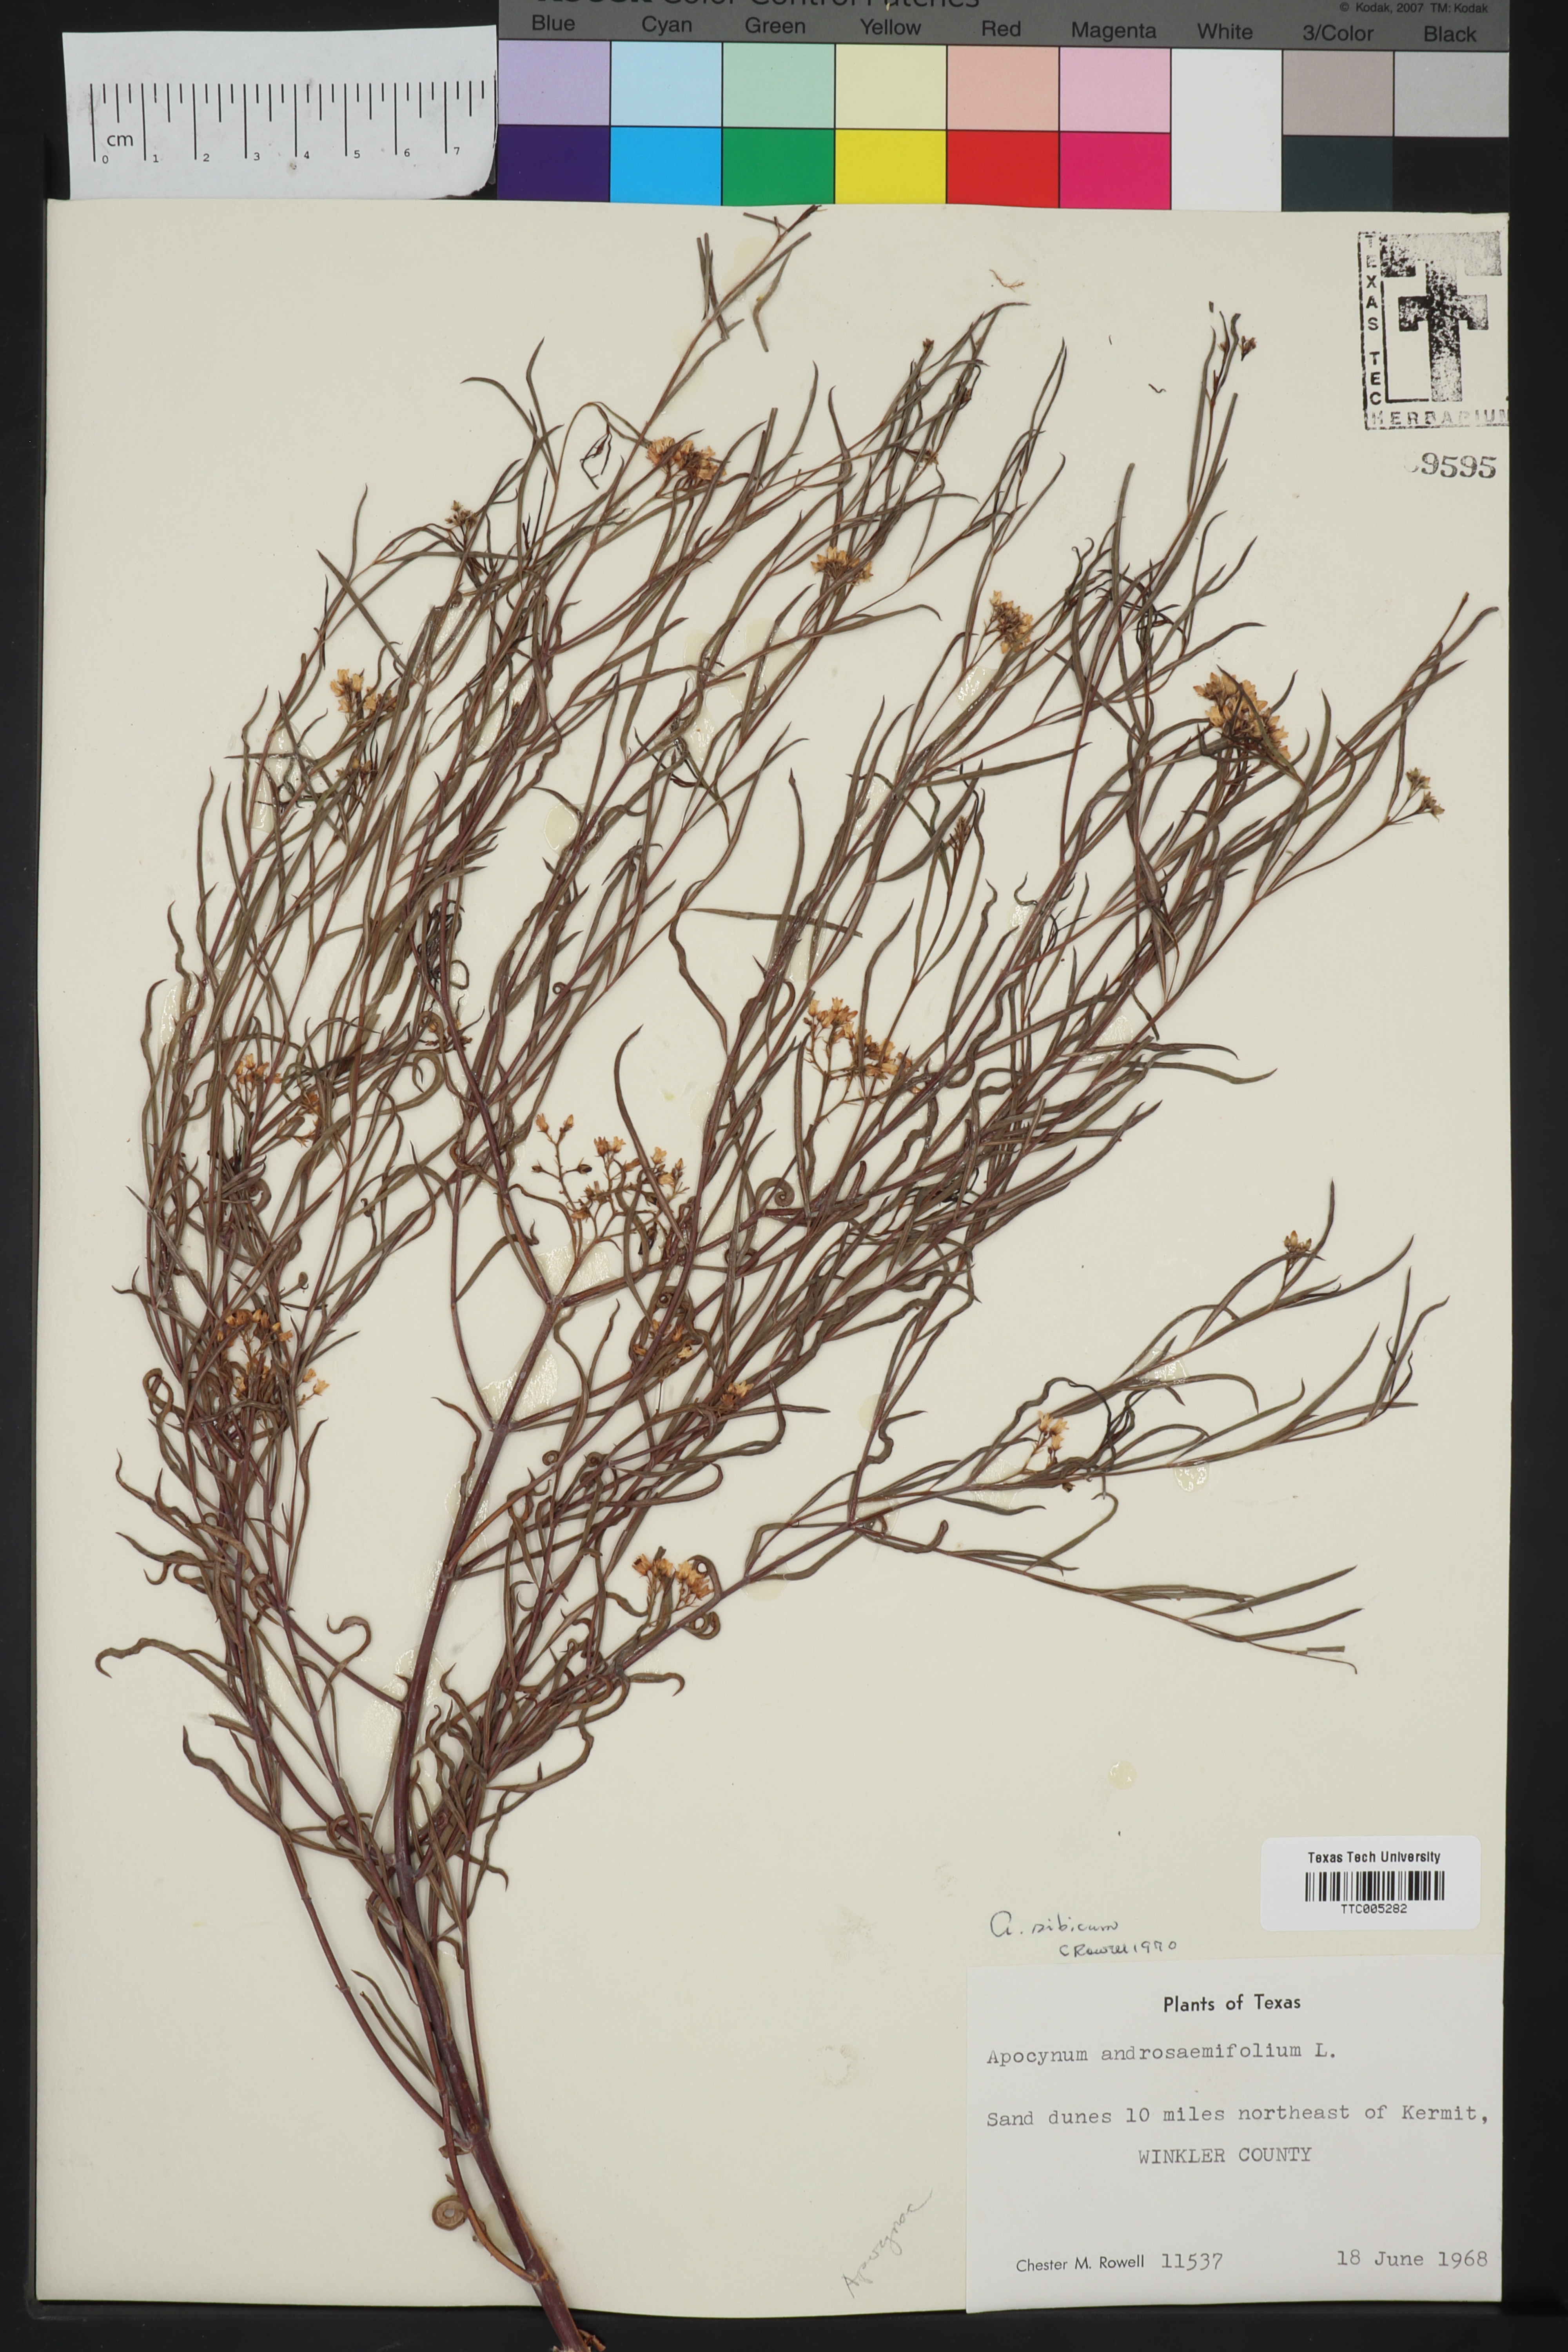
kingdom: Plantae
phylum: Tracheophyta
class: Magnoliopsida
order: Gentianales
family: Apocynaceae
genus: Apocynum
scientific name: Apocynum cannabinum
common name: Hemp dogbane
